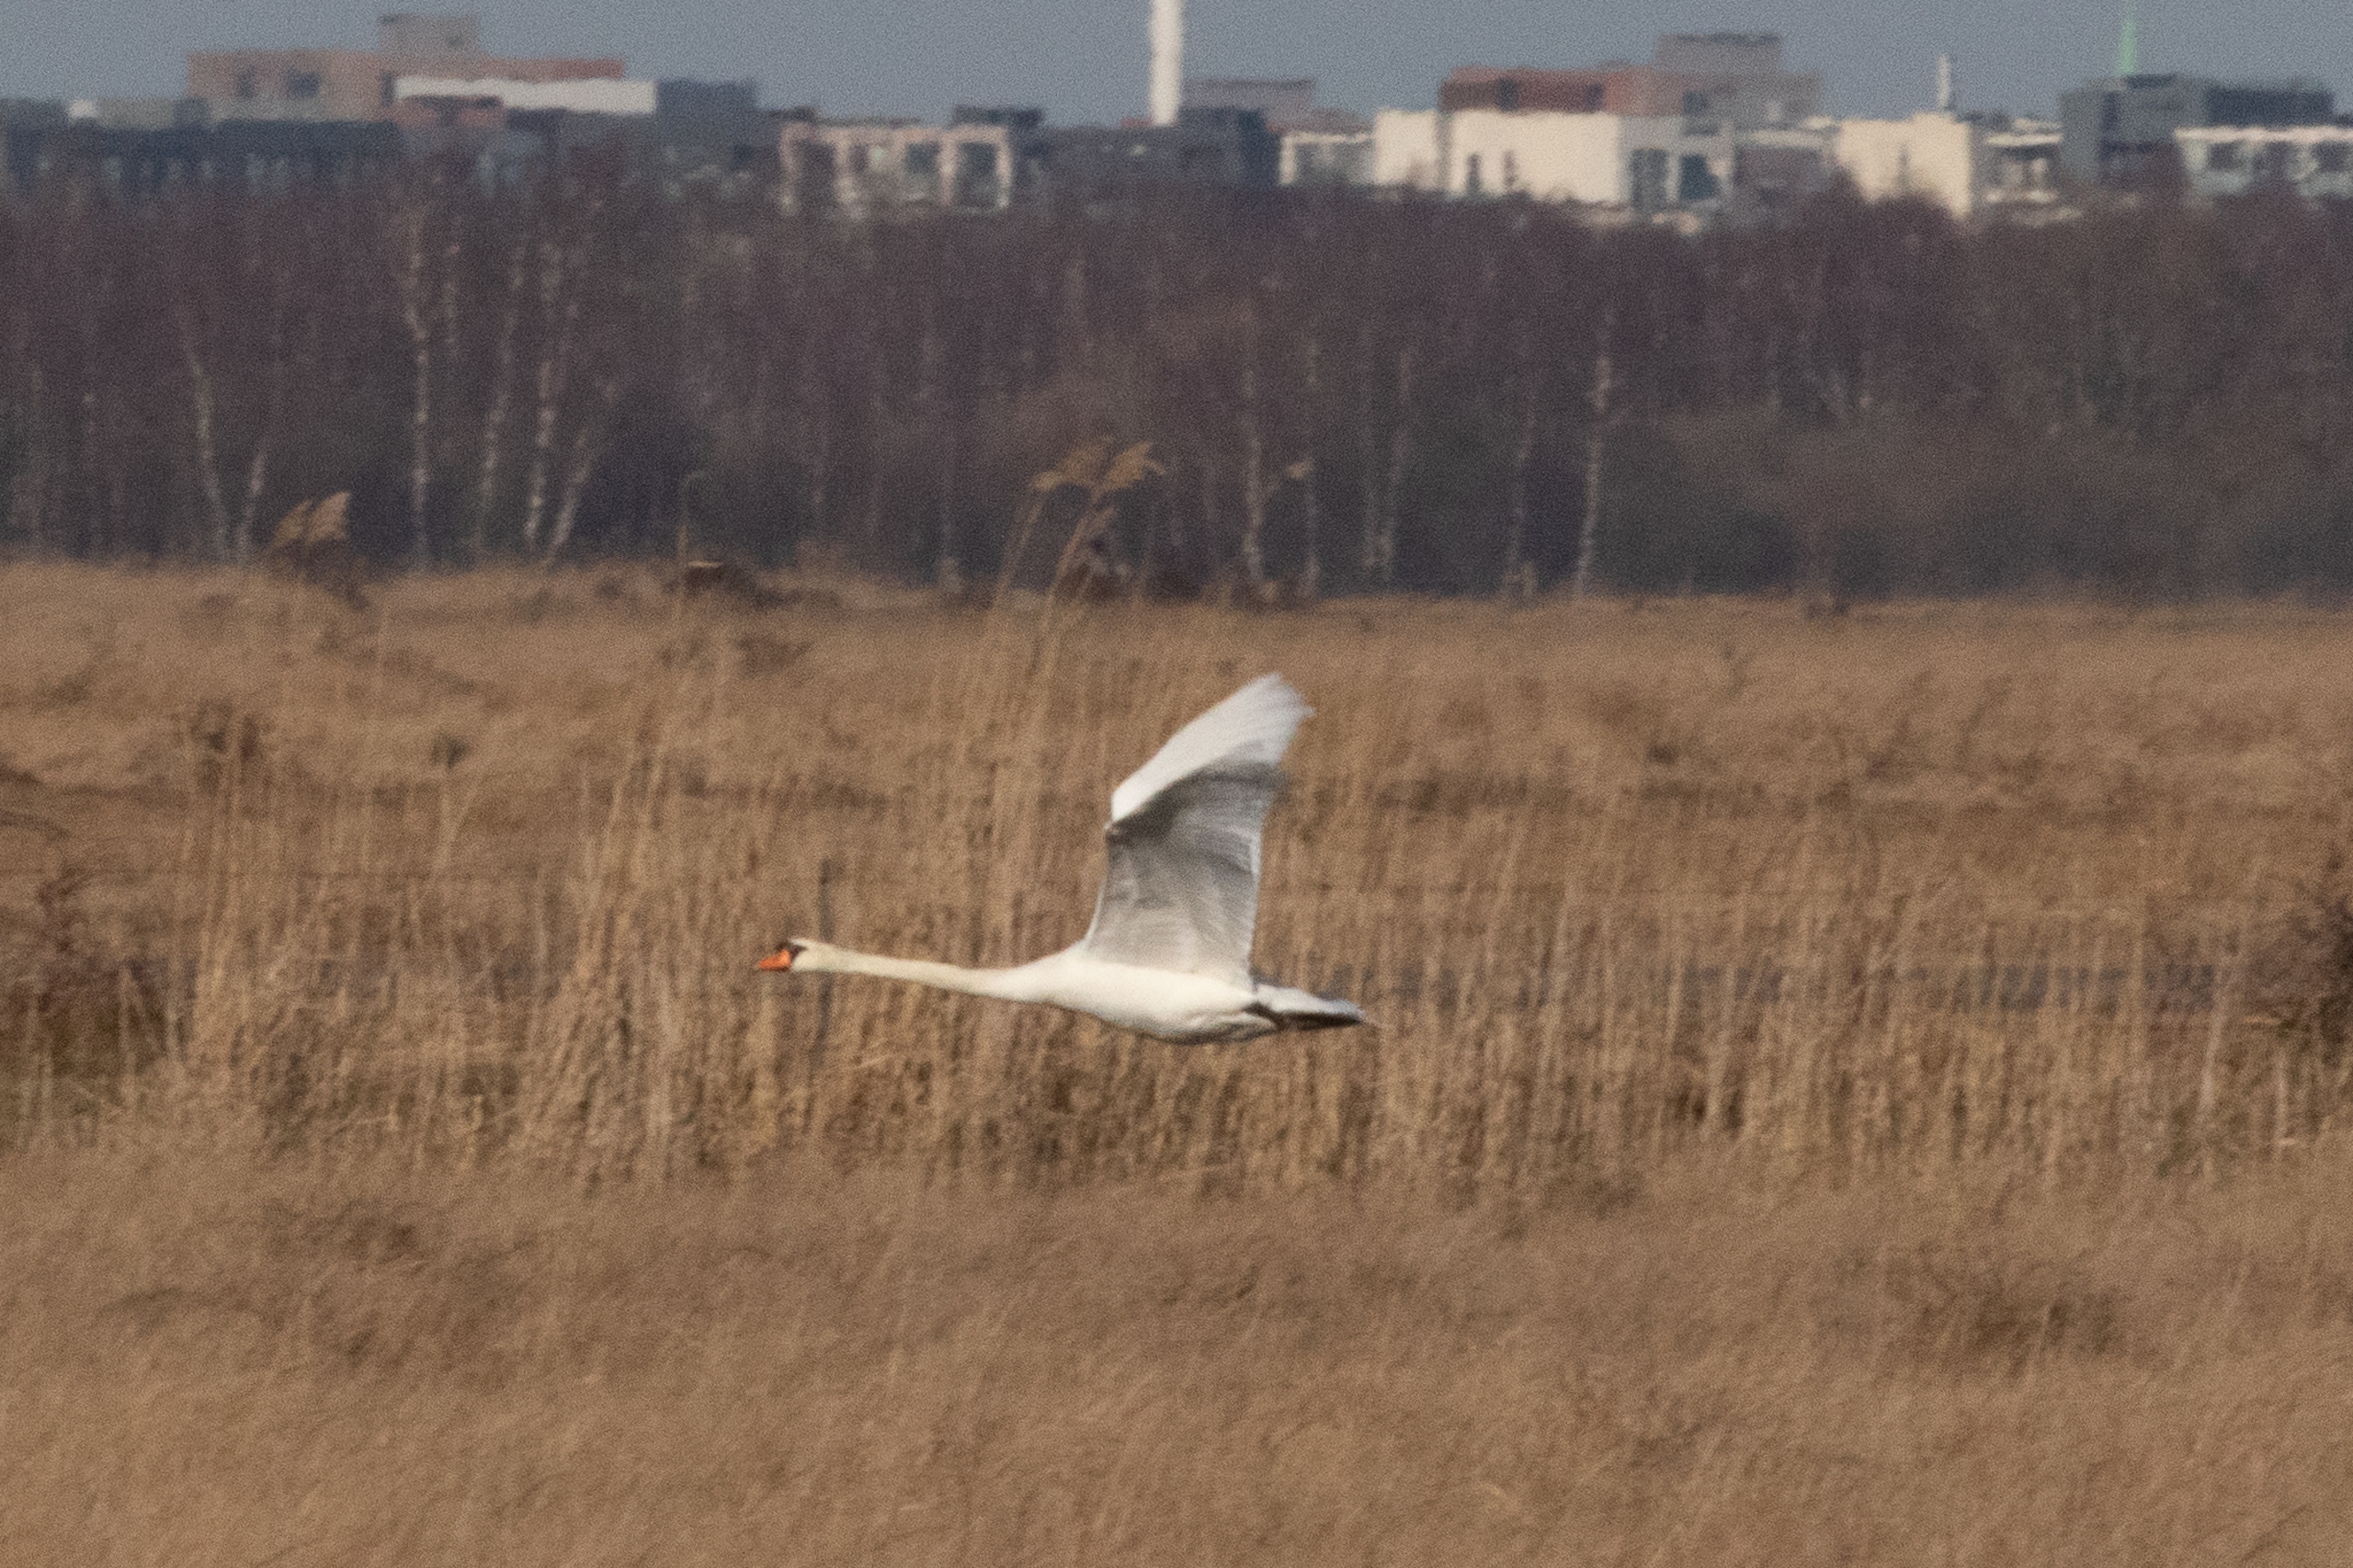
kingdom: Animalia
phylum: Chordata
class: Aves
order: Anseriformes
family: Anatidae
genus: Cygnus
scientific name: Cygnus olor
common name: Knopsvane
